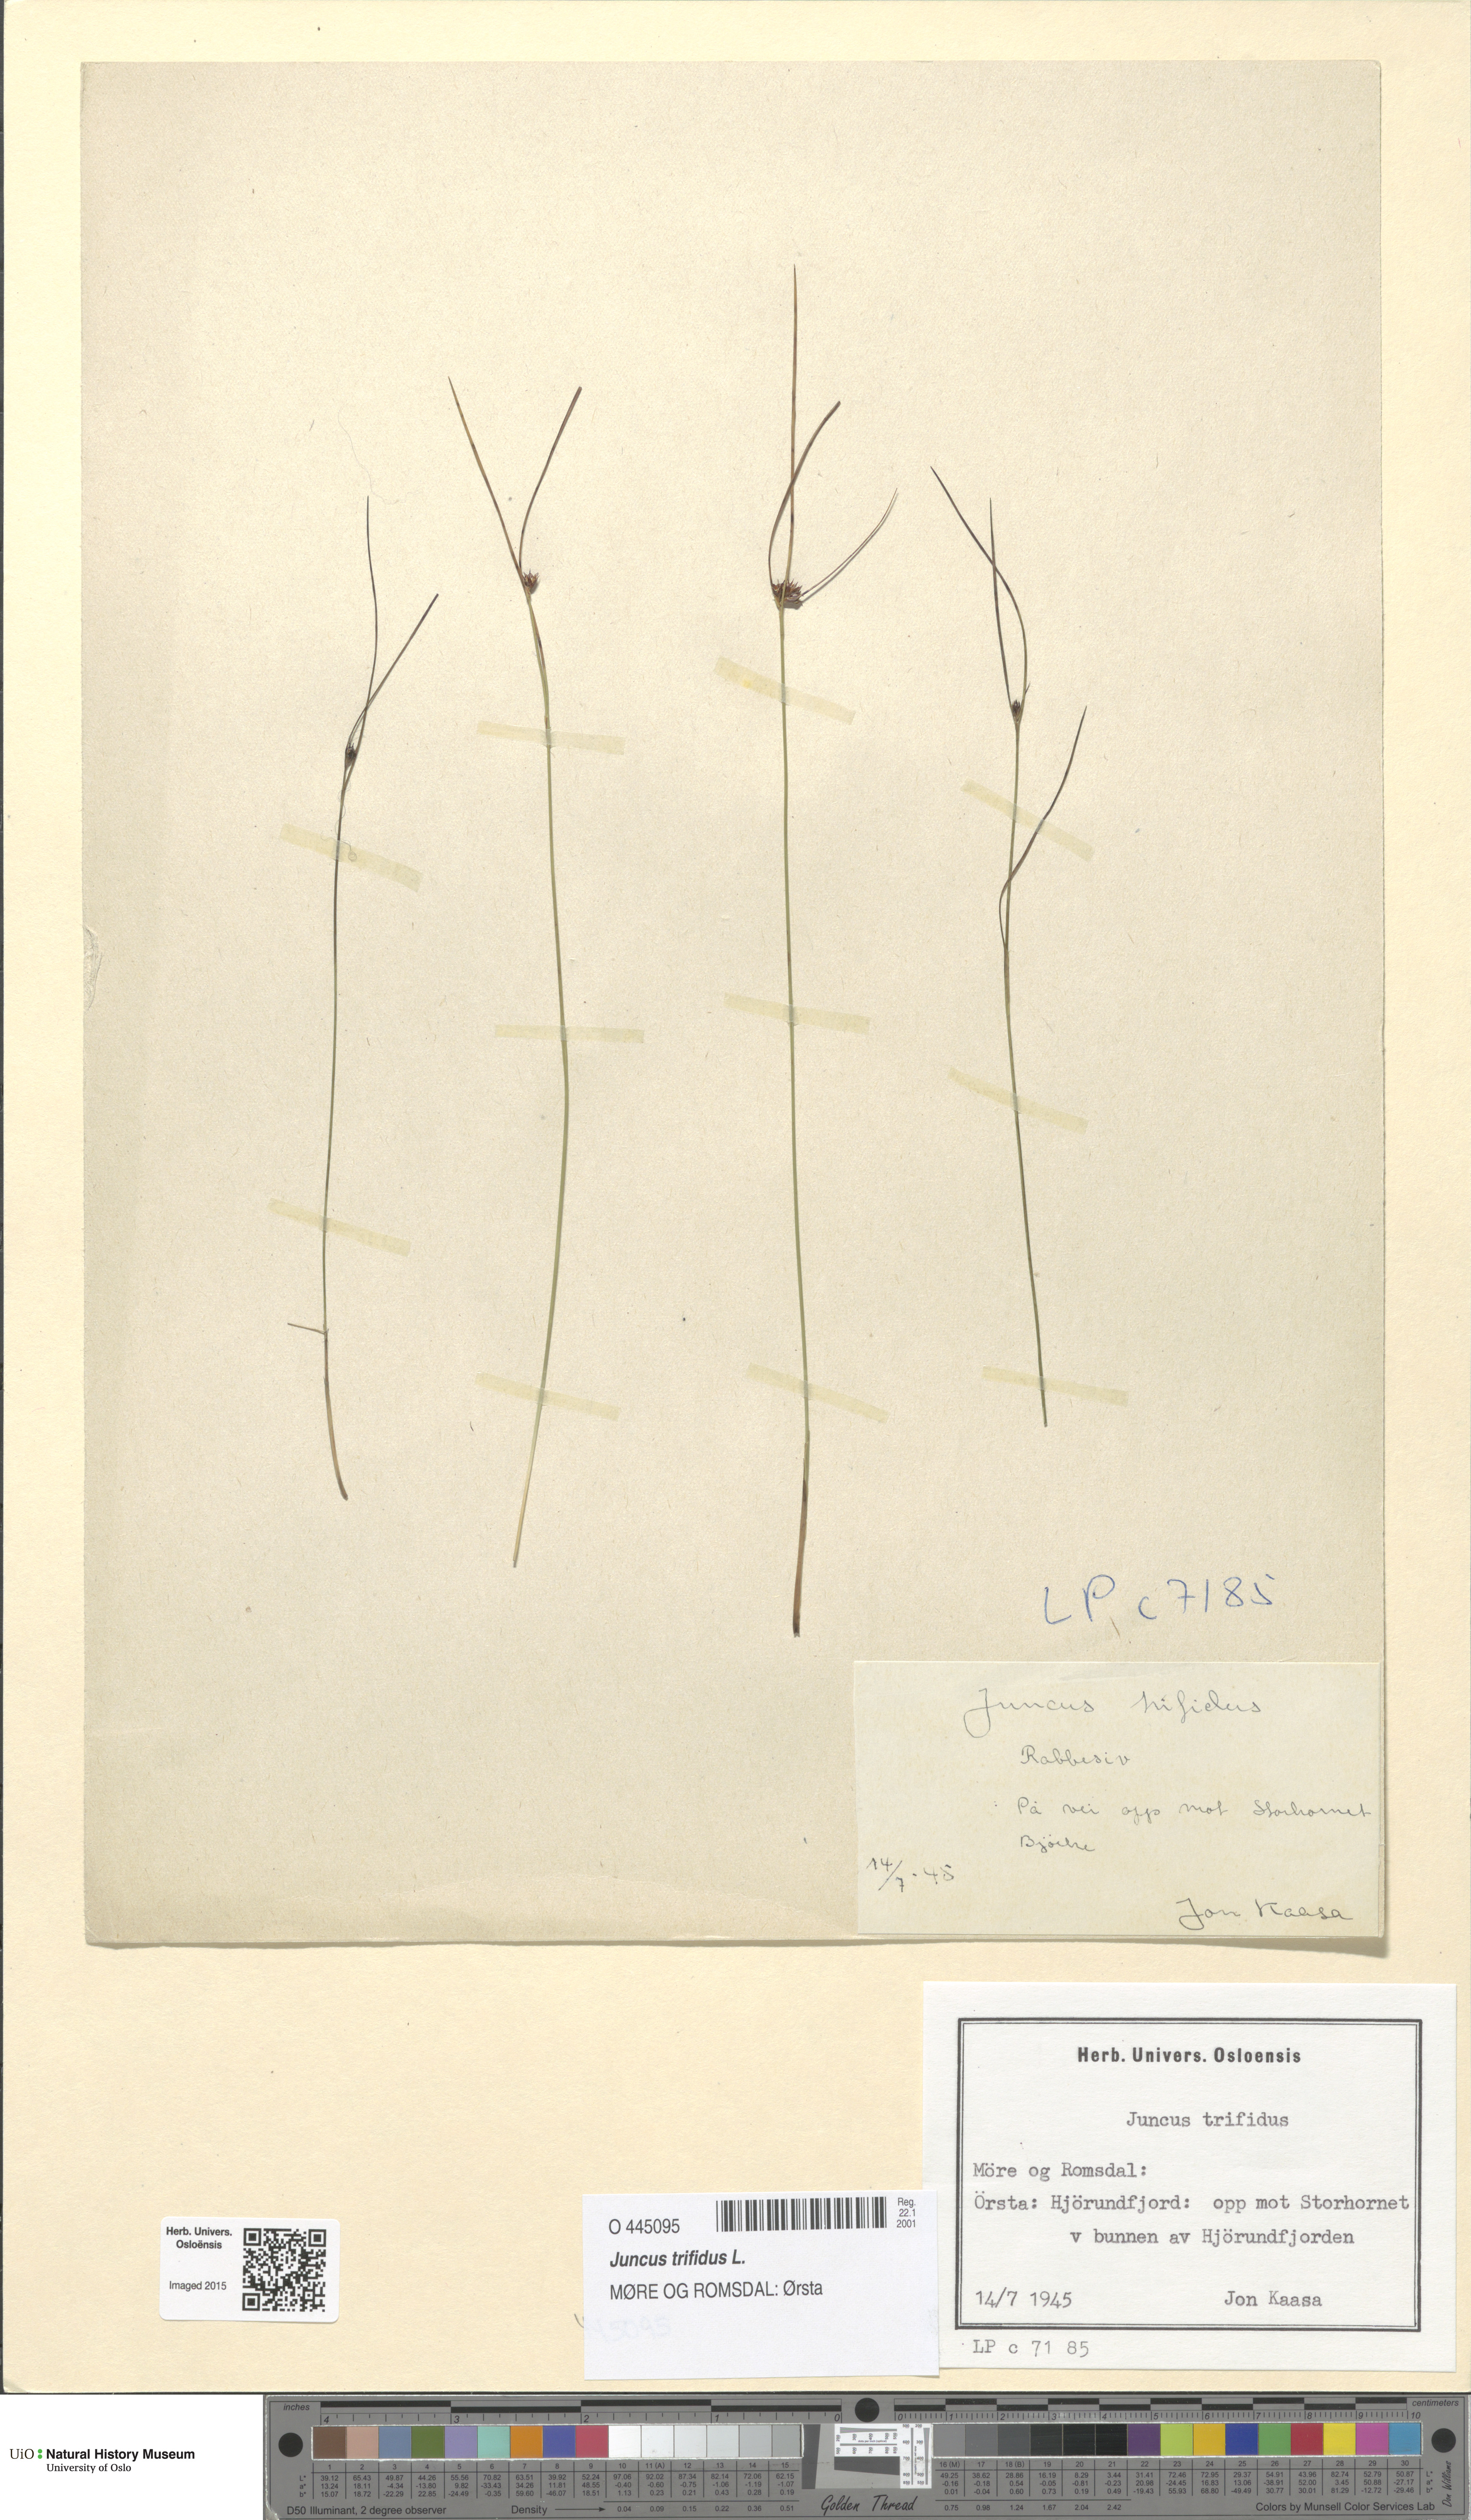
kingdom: Plantae
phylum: Tracheophyta
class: Liliopsida
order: Poales
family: Juncaceae
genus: Oreojuncus
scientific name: Oreojuncus trifidus
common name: Highland rush
